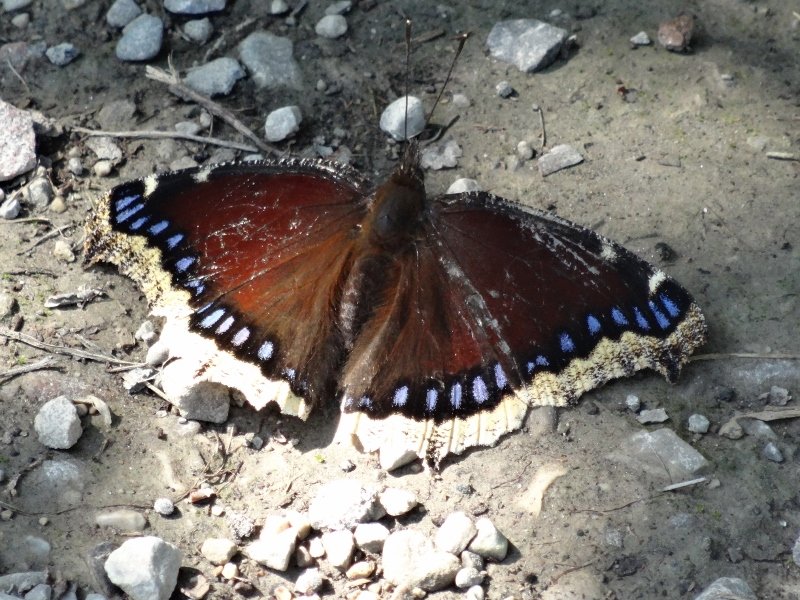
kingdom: Animalia
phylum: Arthropoda
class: Insecta
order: Lepidoptera
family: Nymphalidae
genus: Nymphalis
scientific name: Nymphalis antiopa
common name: Mourning Cloak
